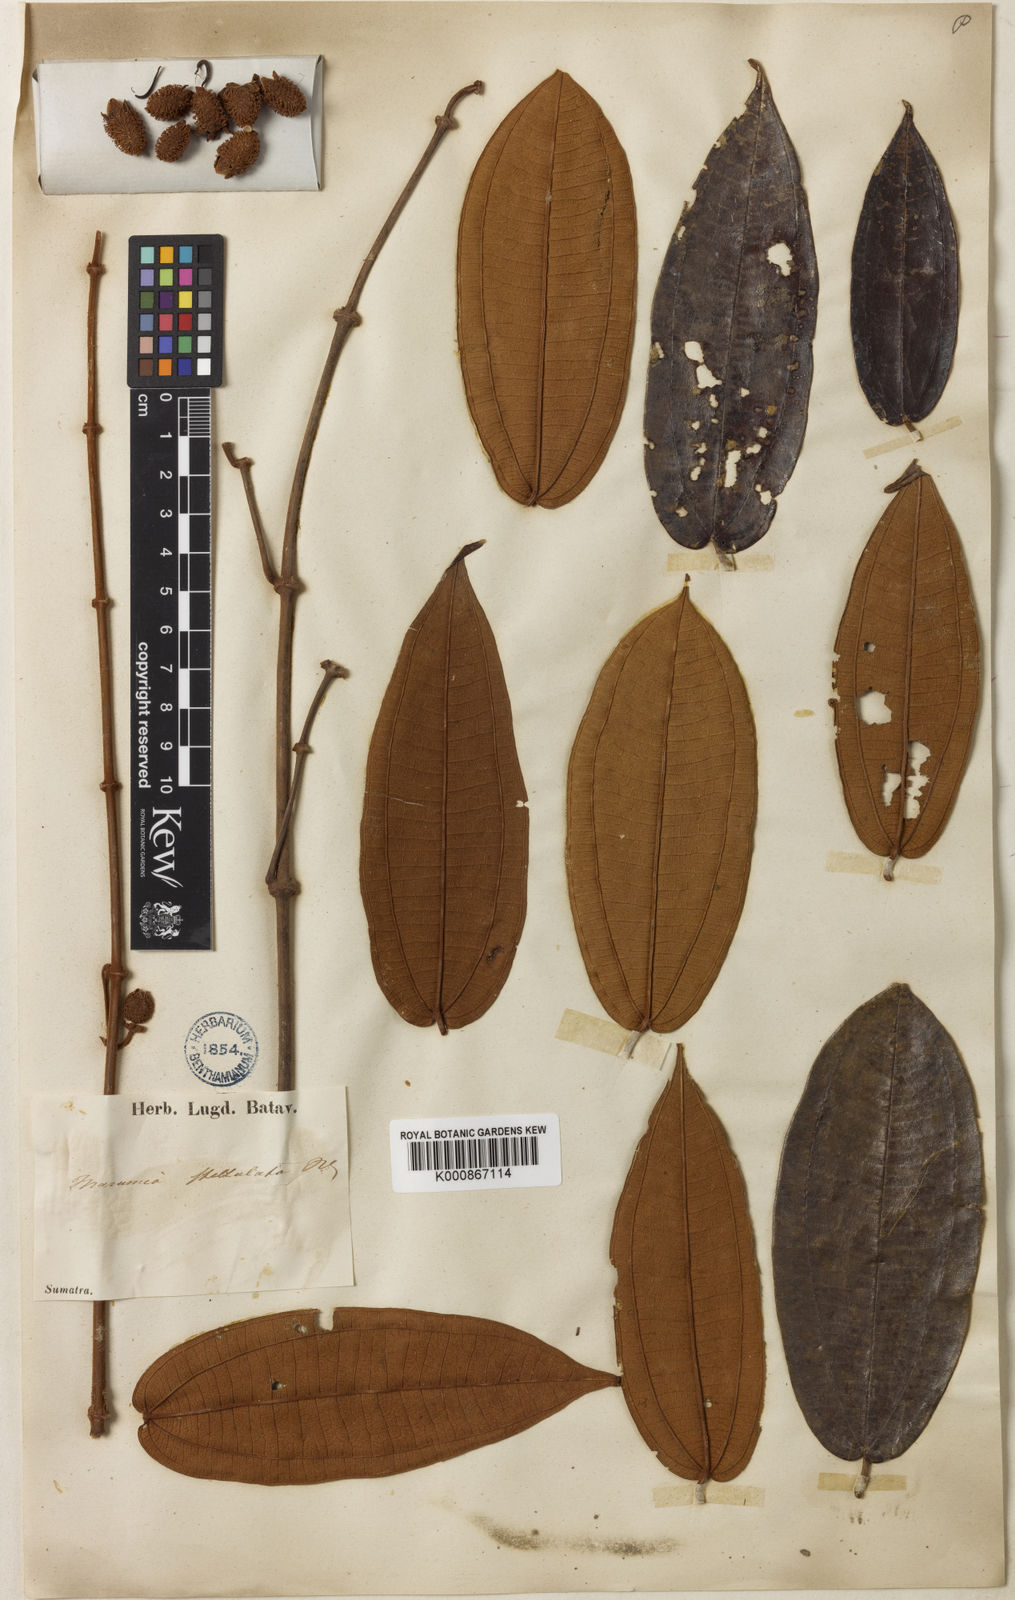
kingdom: Plantae
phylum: Tracheophyta
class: Magnoliopsida
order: Myrtales
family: Melastomataceae
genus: Macrolenes
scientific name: Macrolenes stellulata
